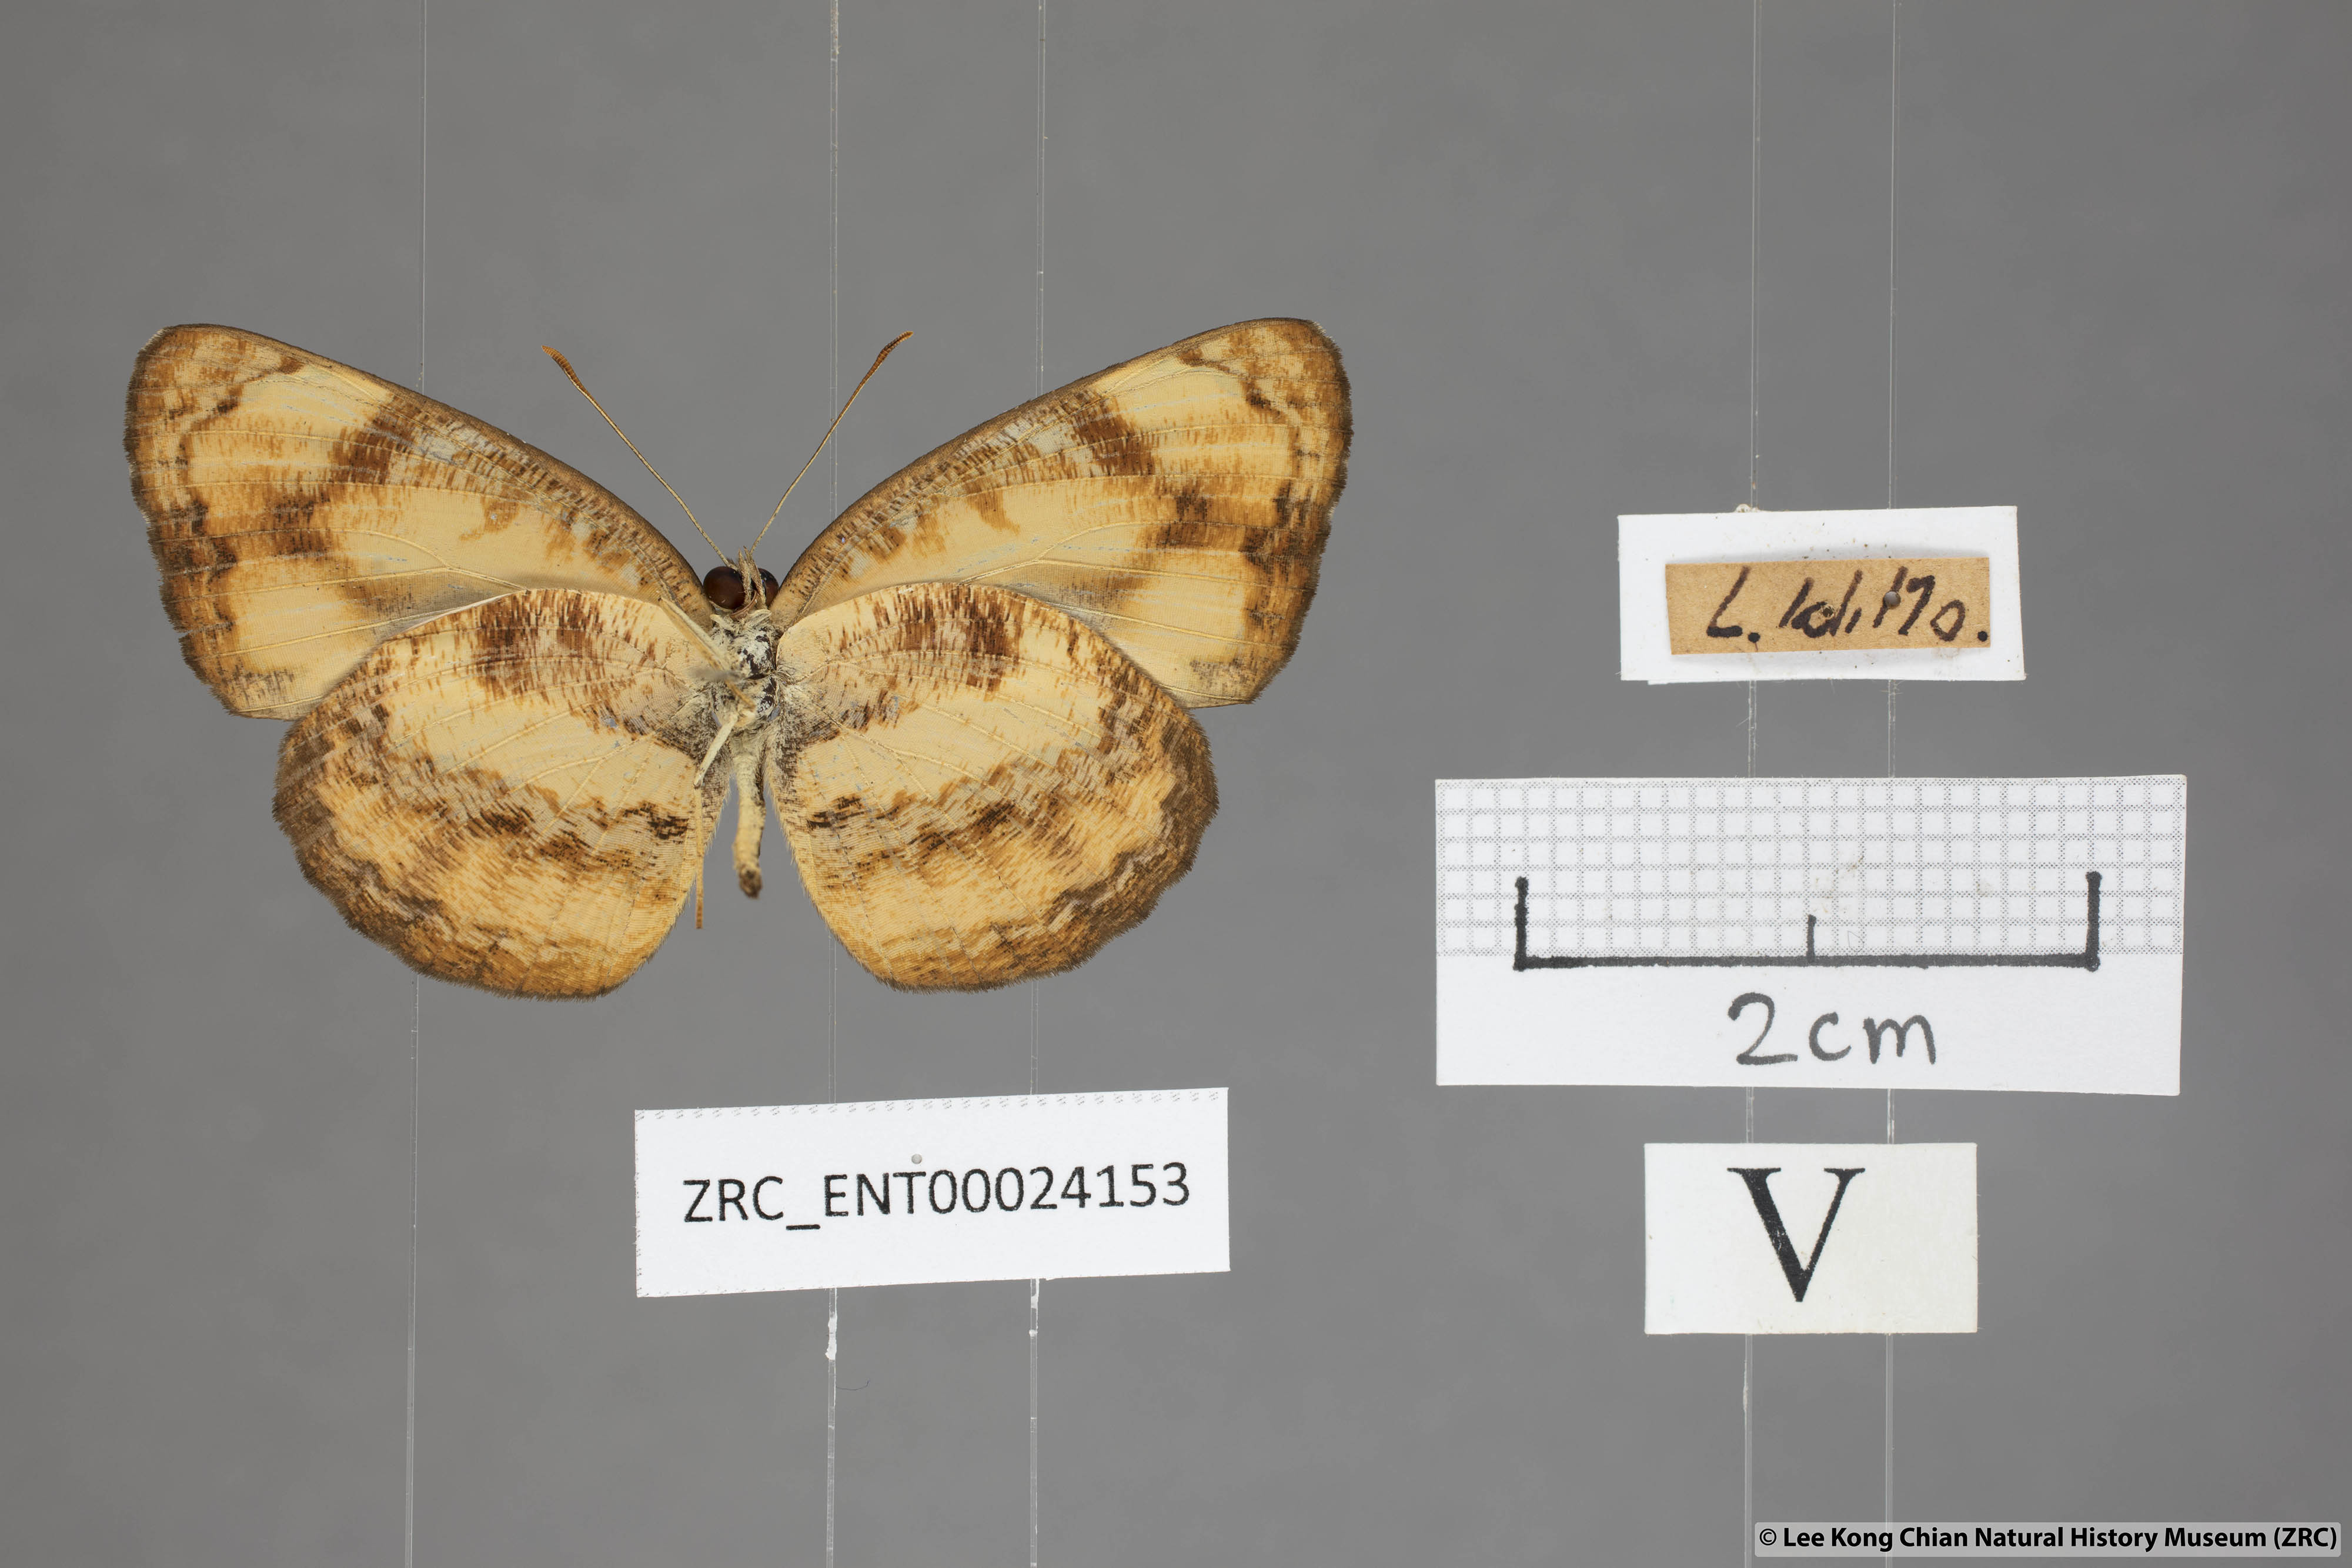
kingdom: Animalia
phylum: Arthropoda
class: Insecta
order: Lepidoptera
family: Nymphalidae
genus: Pantoporia
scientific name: Pantoporia sandaka
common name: Extra lascar
